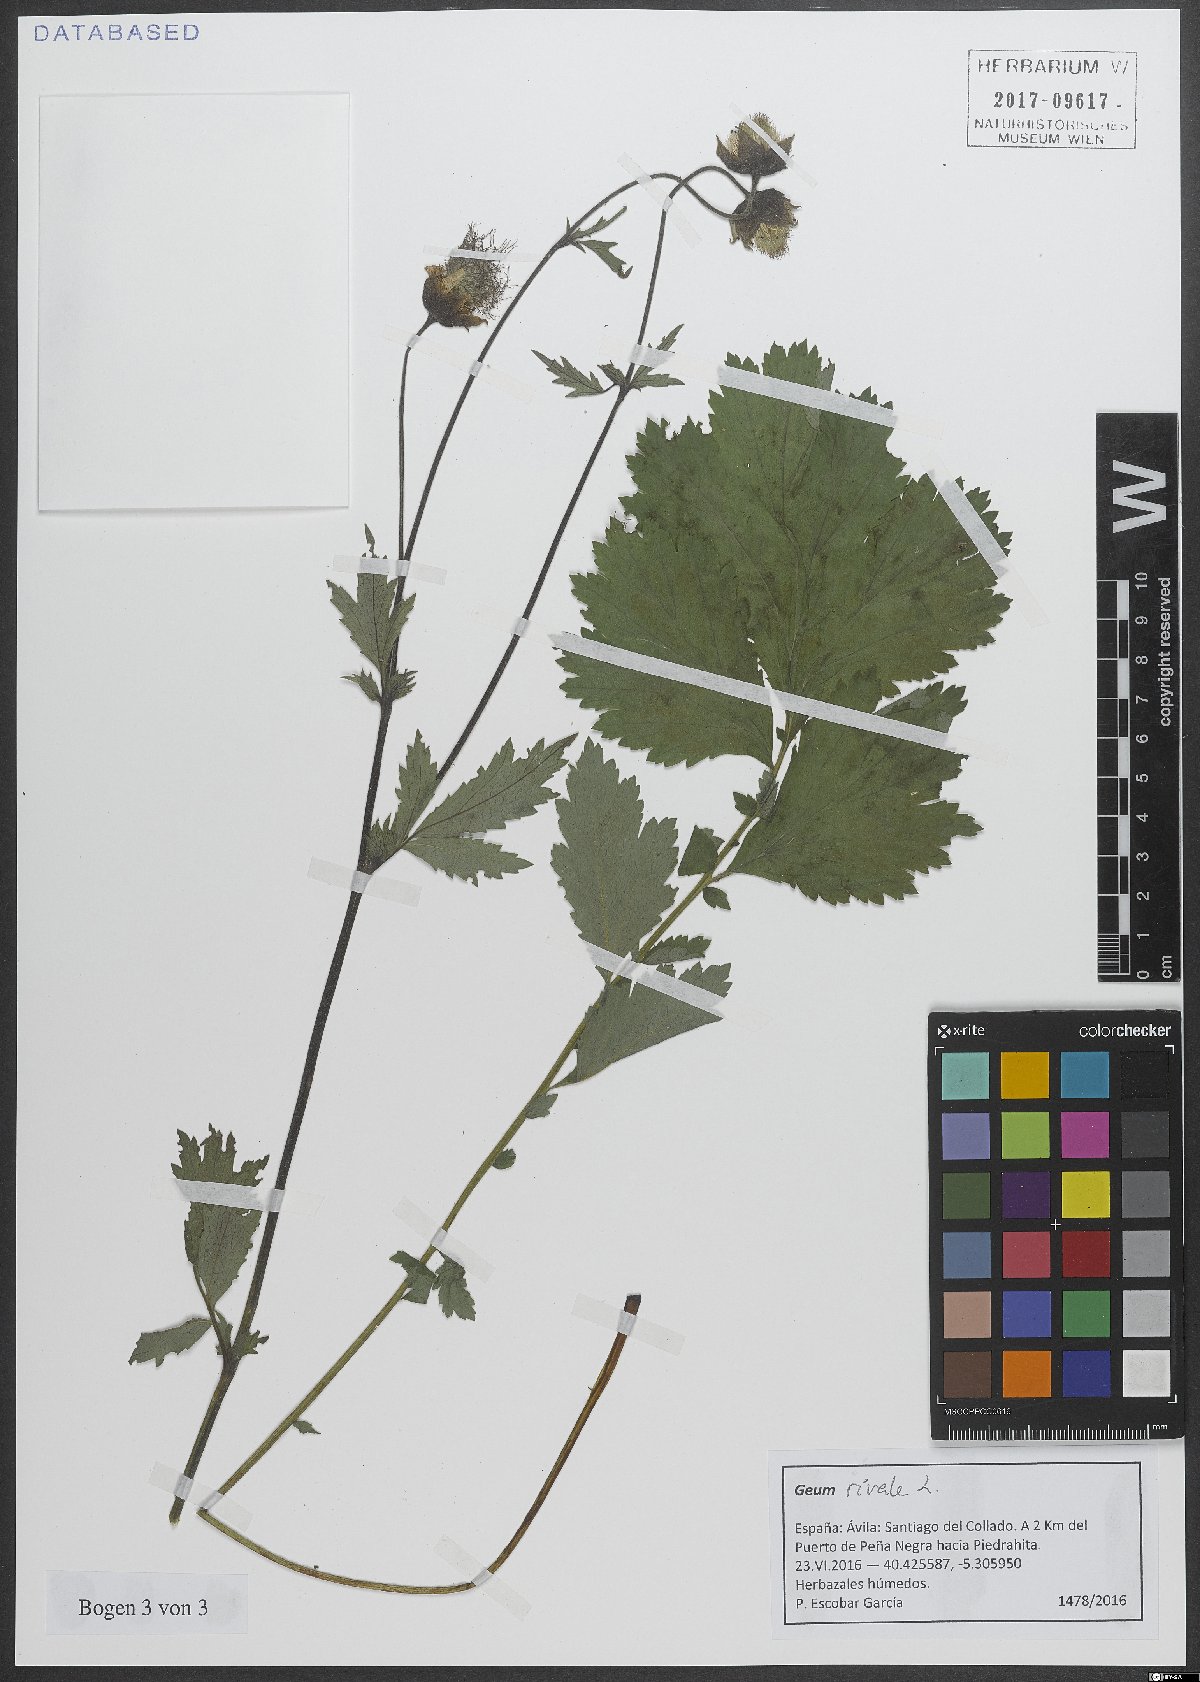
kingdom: Plantae
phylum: Tracheophyta
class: Magnoliopsida
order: Rosales
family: Rosaceae
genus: Geum
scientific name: Geum rivale
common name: Water avens
